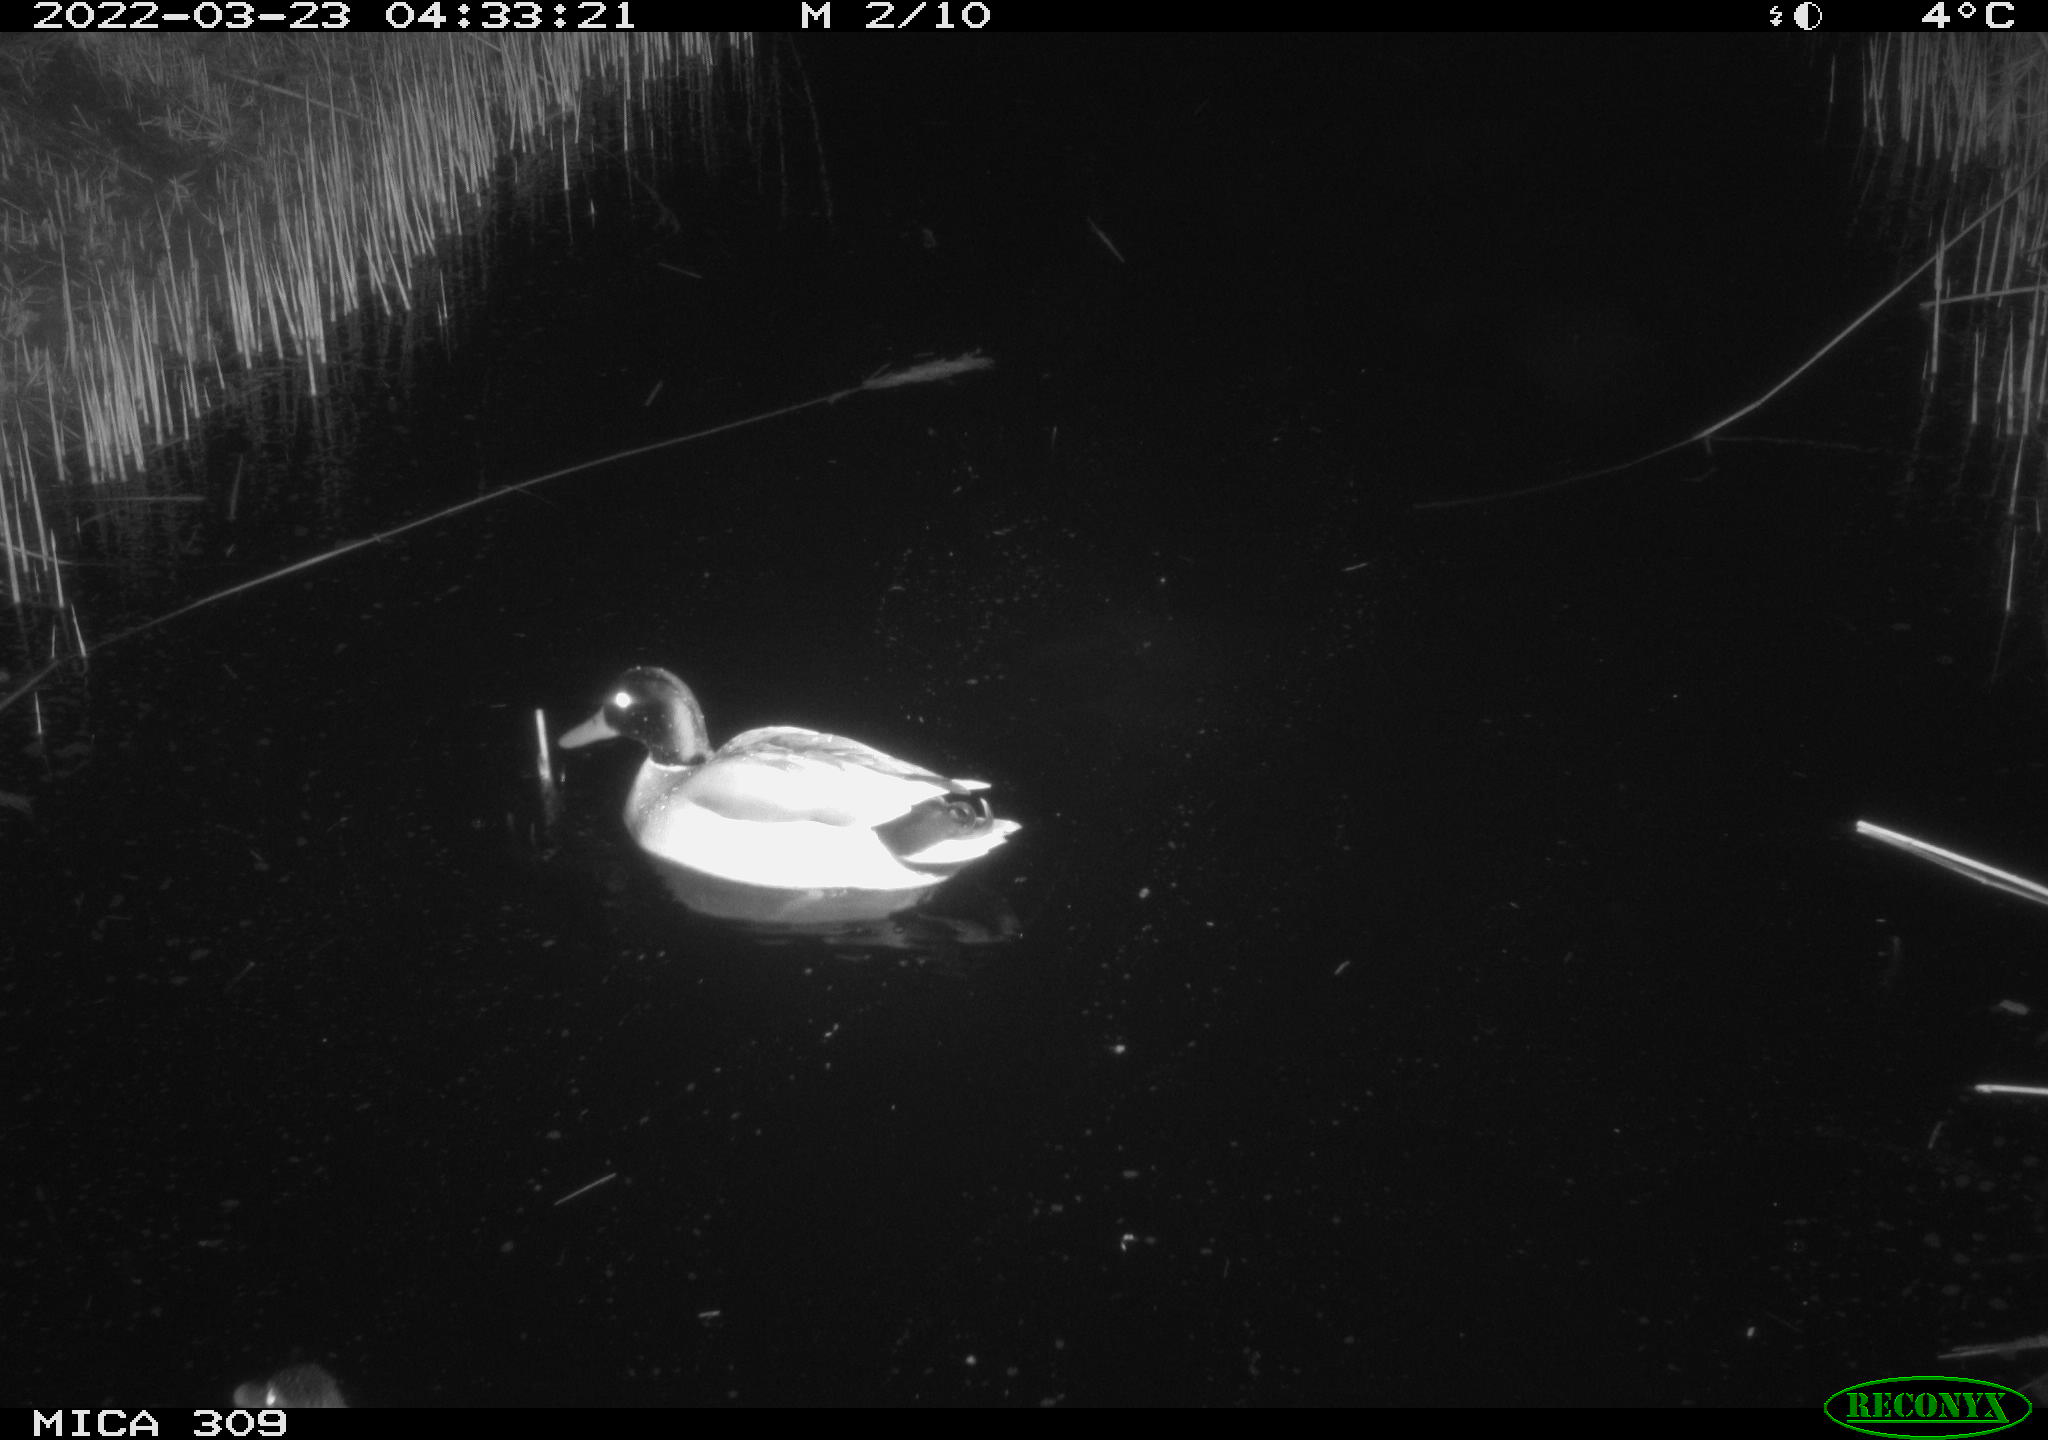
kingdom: Animalia
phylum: Chordata
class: Aves
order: Anseriformes
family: Anatidae
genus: Anas
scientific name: Anas platyrhynchos
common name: Mallard
